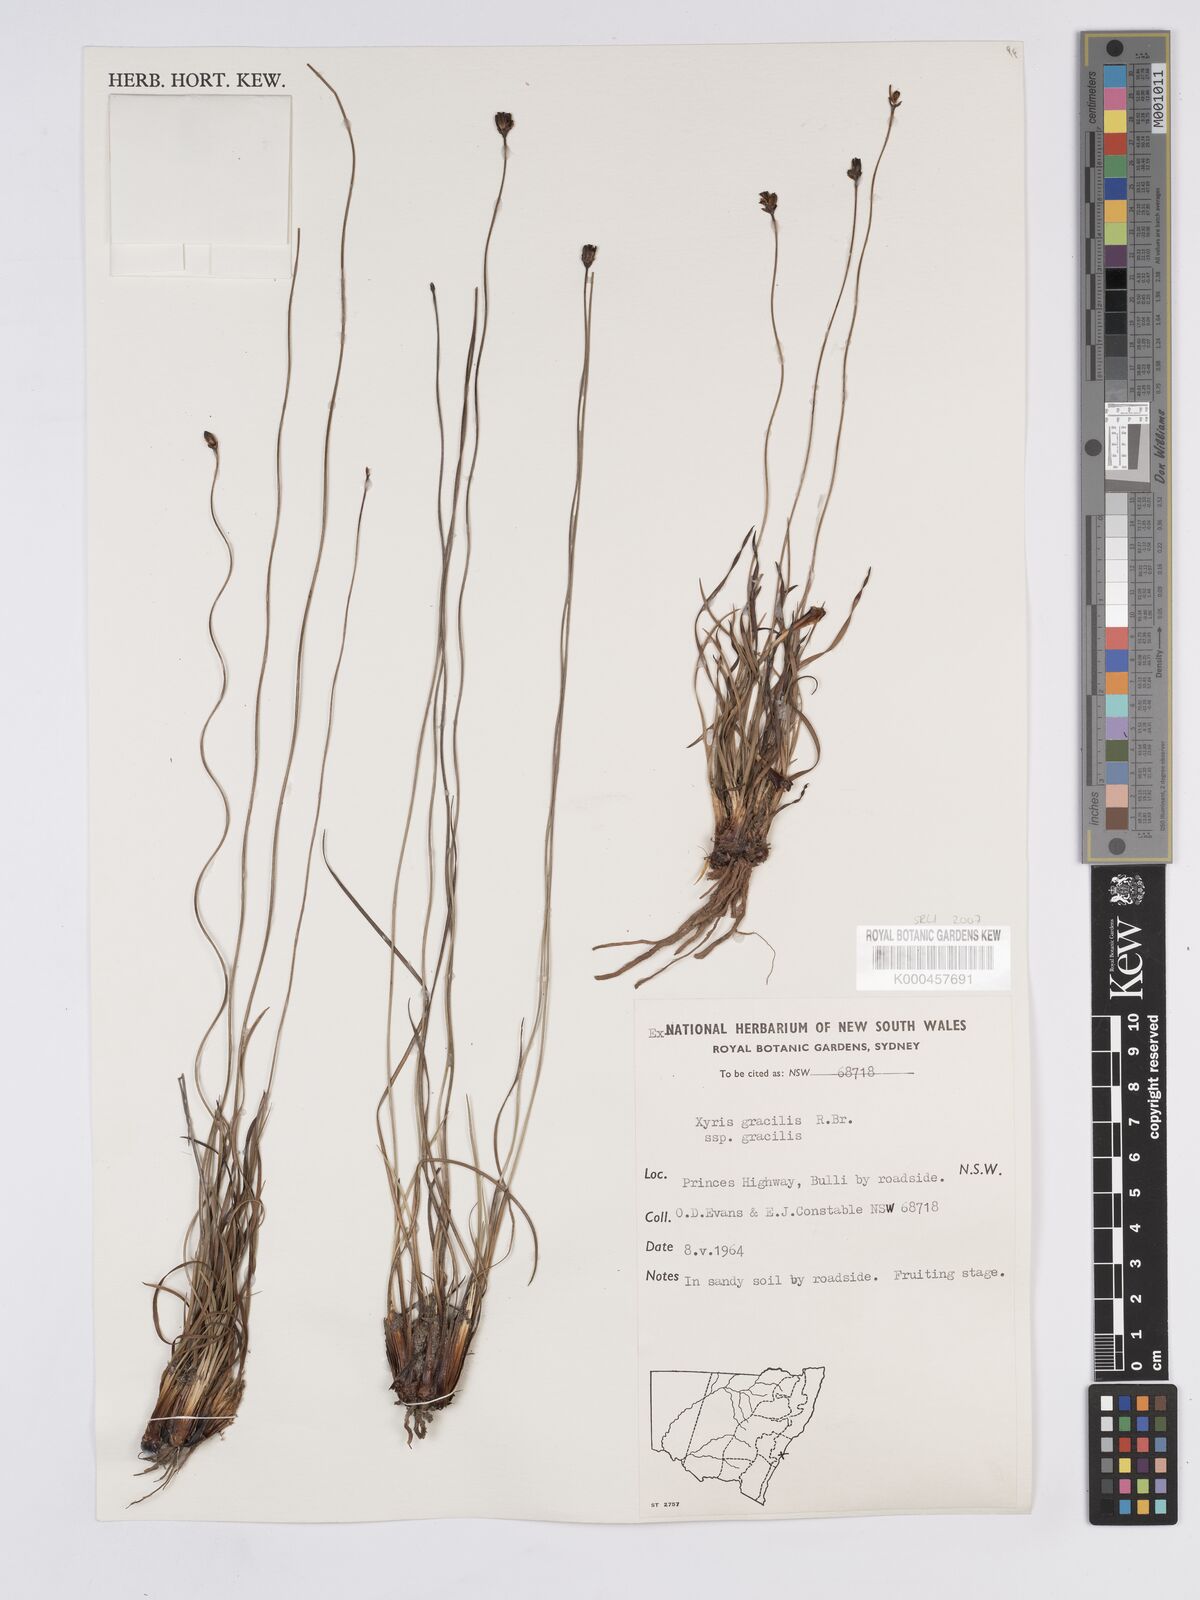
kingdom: Plantae
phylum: Tracheophyta
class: Liliopsida
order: Poales
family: Xyridaceae
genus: Xyris
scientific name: Xyris
